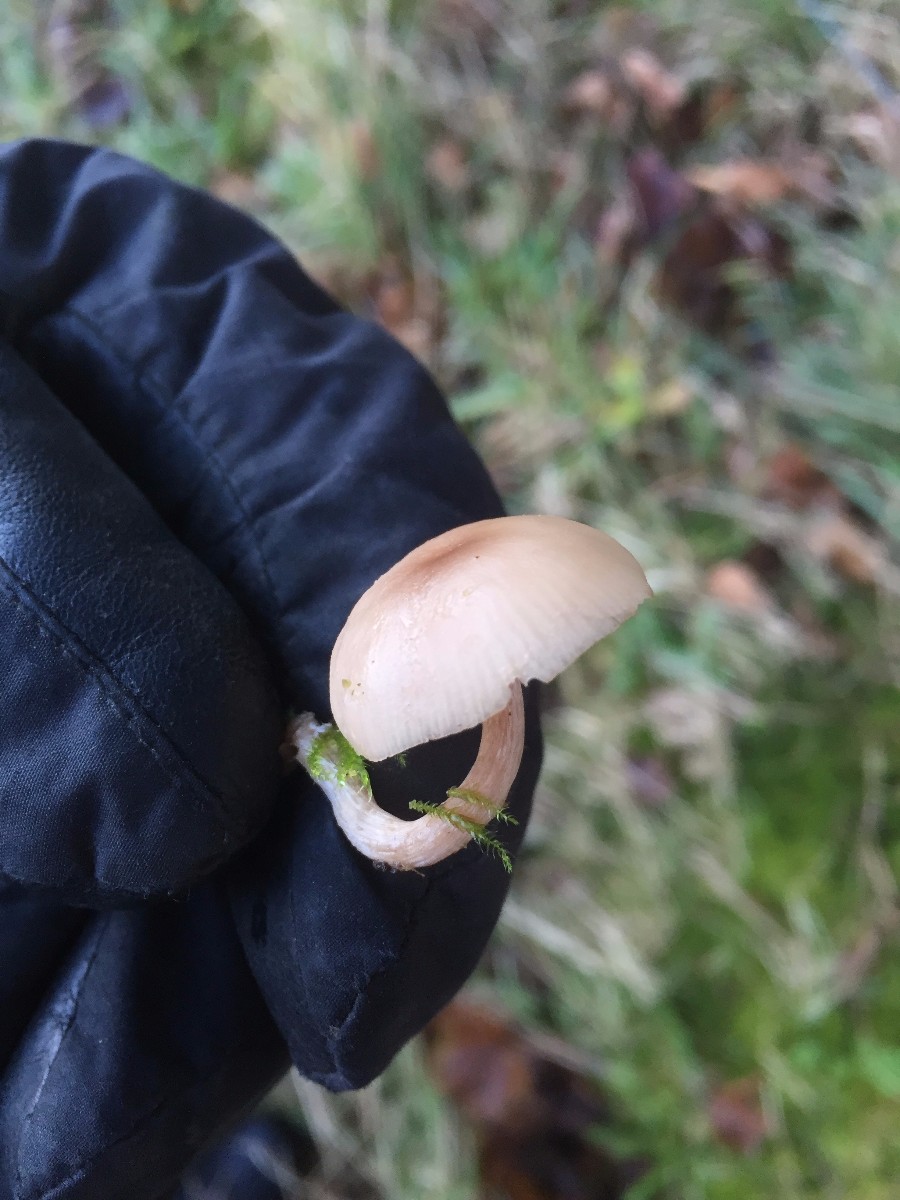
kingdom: Fungi
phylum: Basidiomycota
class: Agaricomycetes
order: Agaricales
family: Tricholomataceae
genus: Clitocybe
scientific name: Clitocybe fragrans
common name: vellugtende tragthat
